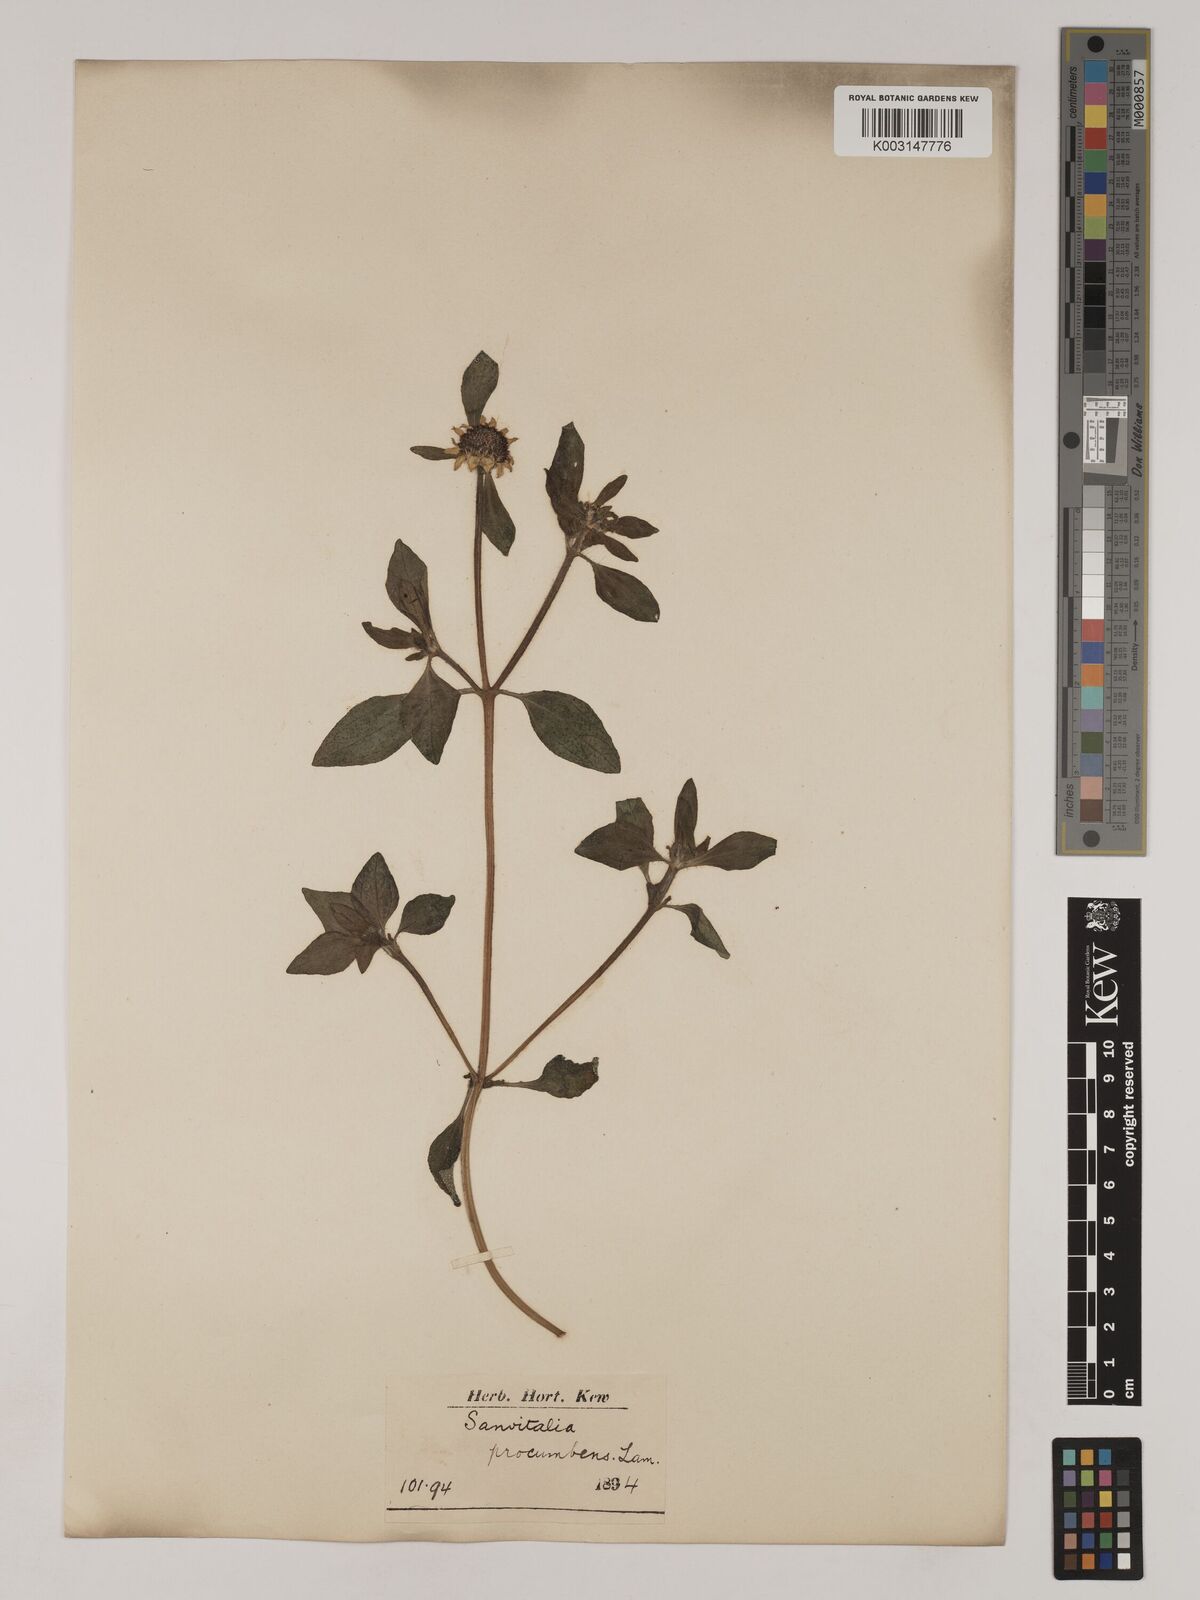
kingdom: Plantae
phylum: Tracheophyta
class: Magnoliopsida
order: Asterales
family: Asteraceae
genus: Sanvitalia
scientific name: Sanvitalia procumbens
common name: Mexican creeping zinnia
